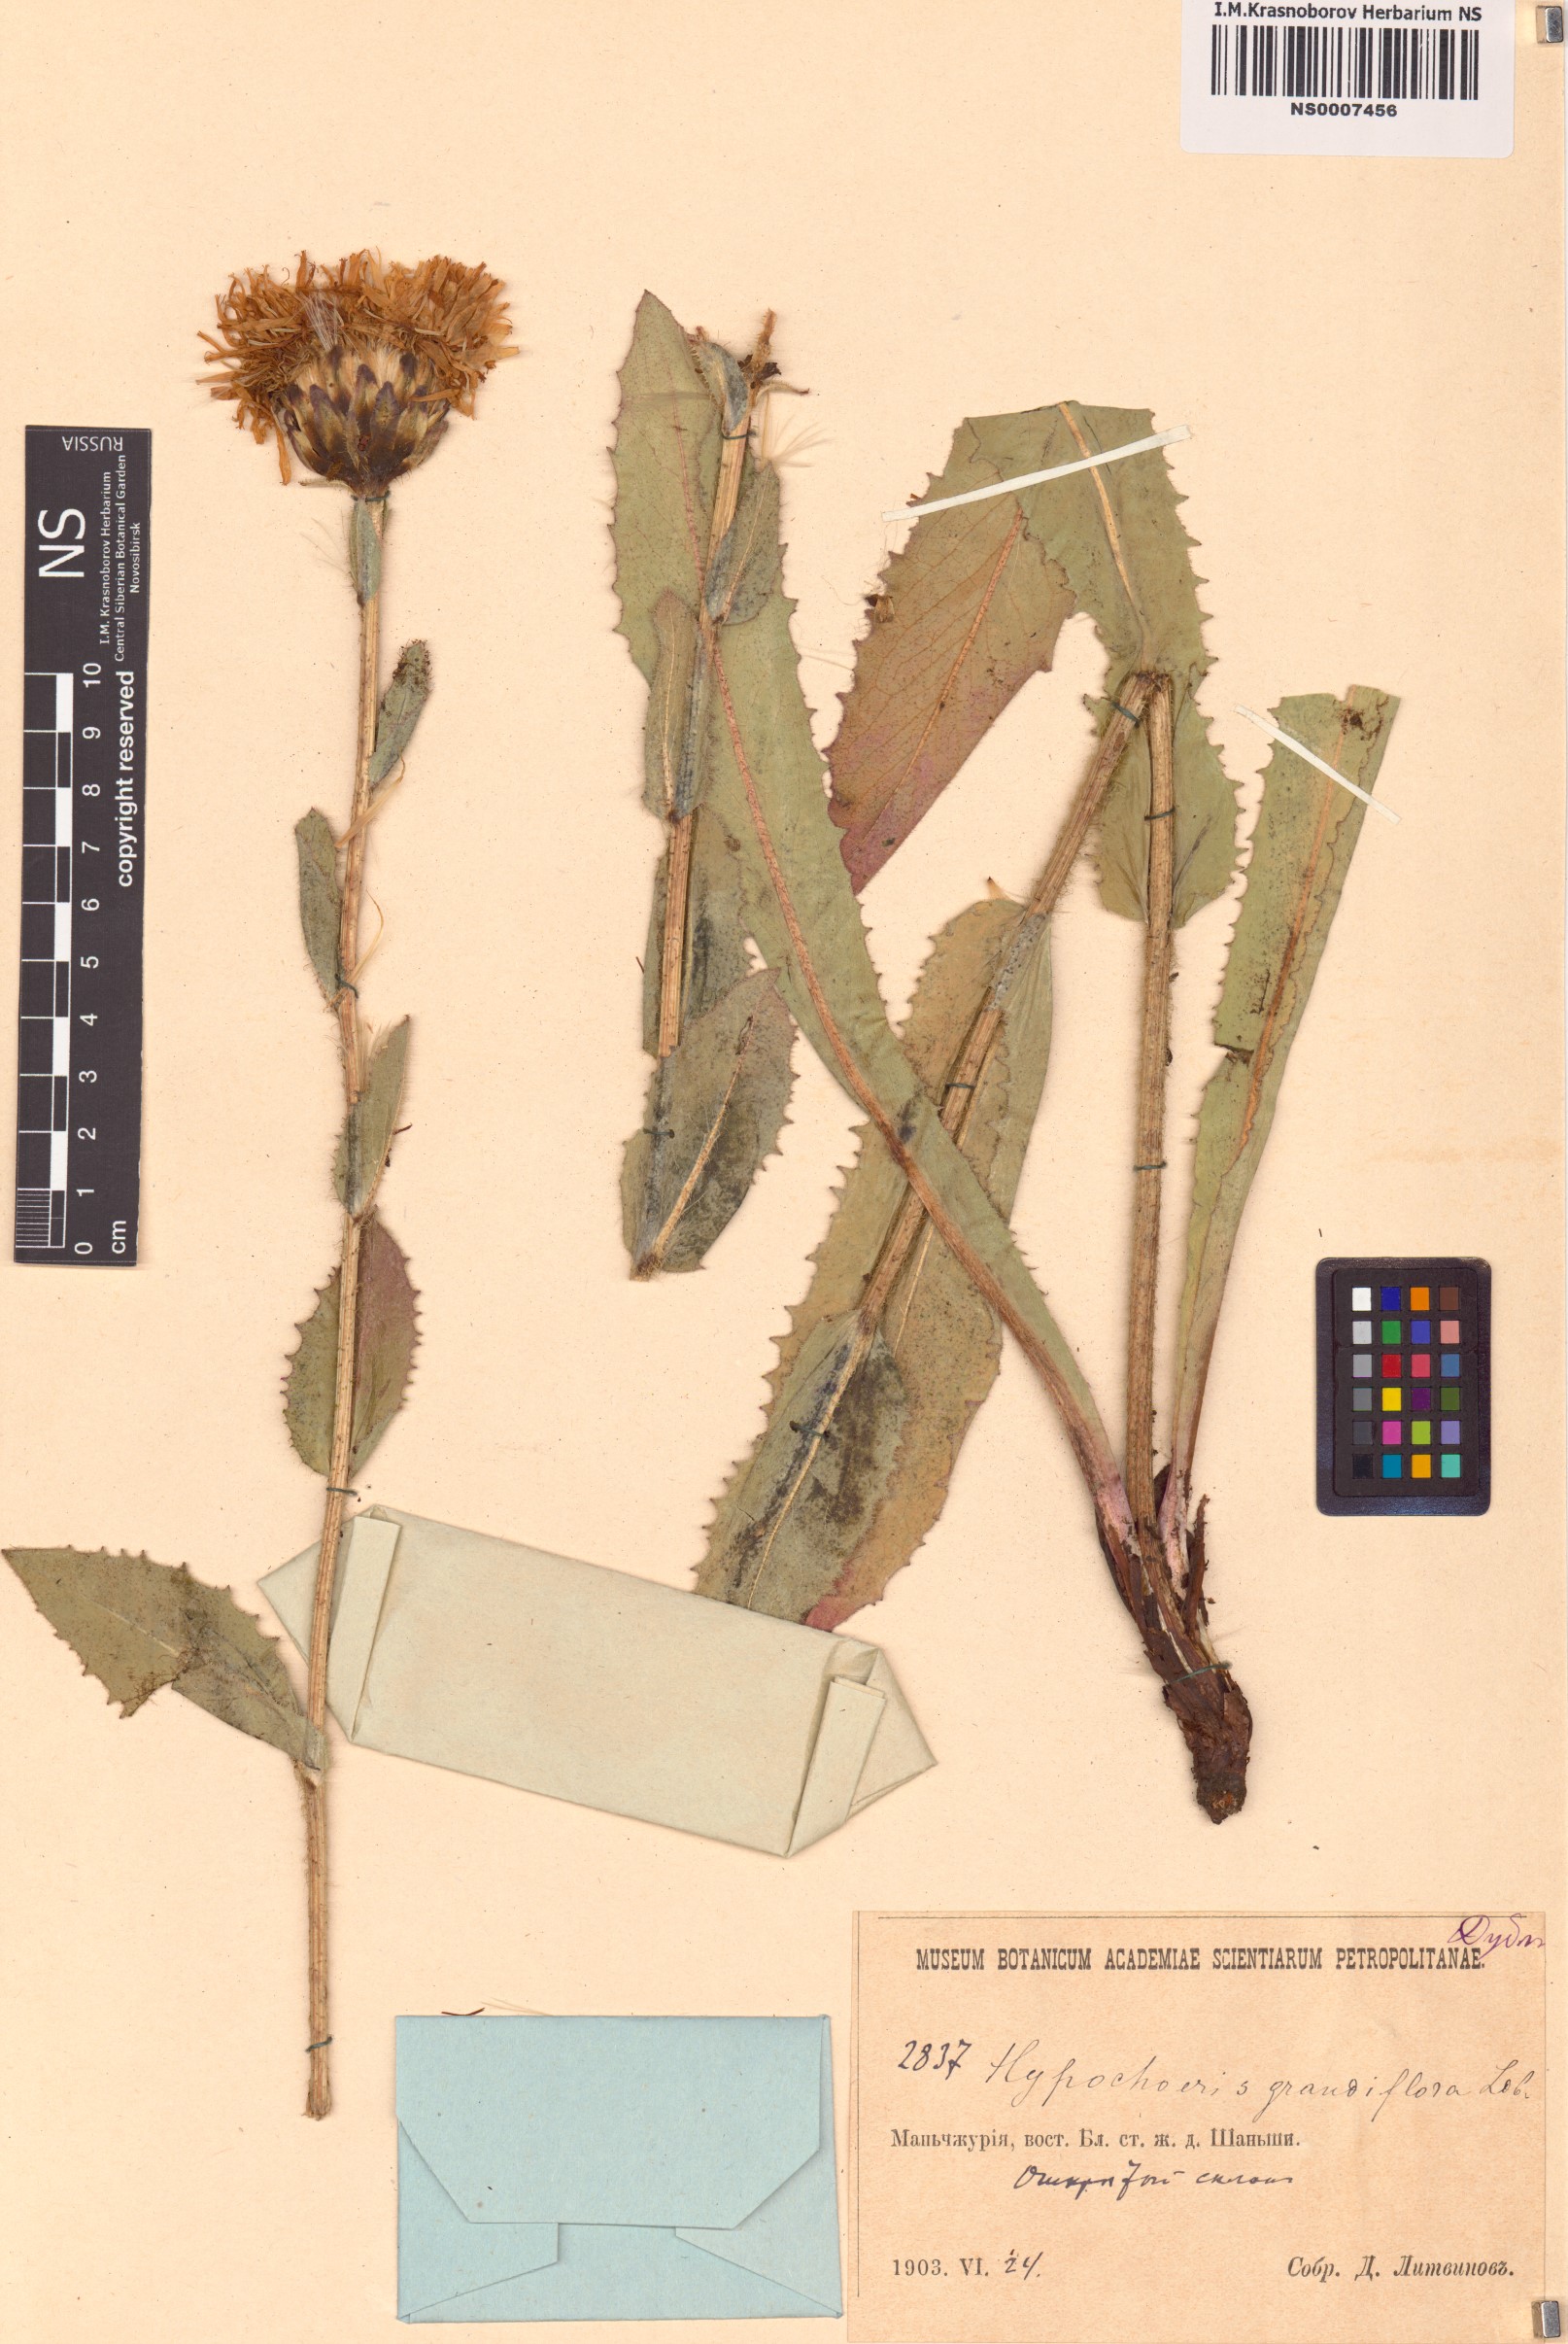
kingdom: Plantae
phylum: Tracheophyta
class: Magnoliopsida
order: Asterales
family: Asteraceae
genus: Trommsdorffia
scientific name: Trommsdorffia ciliata
